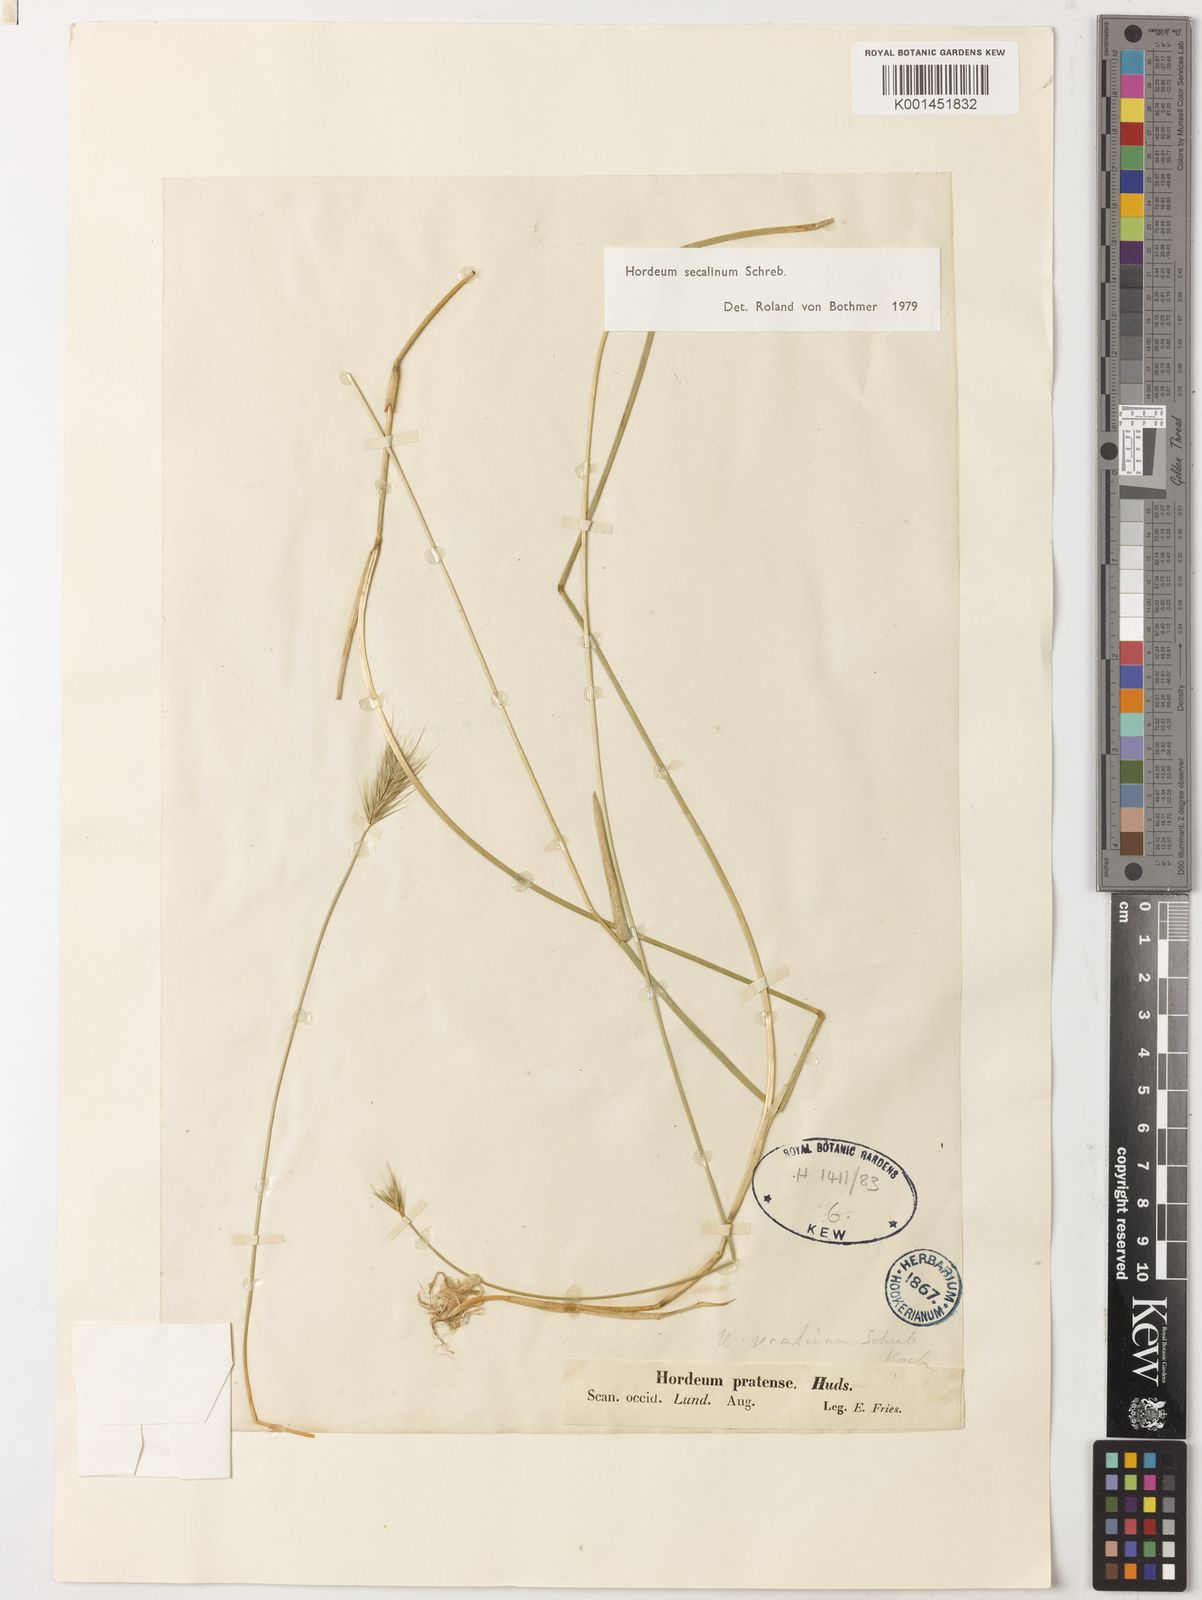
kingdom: Plantae
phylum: Tracheophyta
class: Liliopsida
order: Poales
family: Poaceae
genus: Hordeum
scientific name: Hordeum secalinum
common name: Meadow barley
